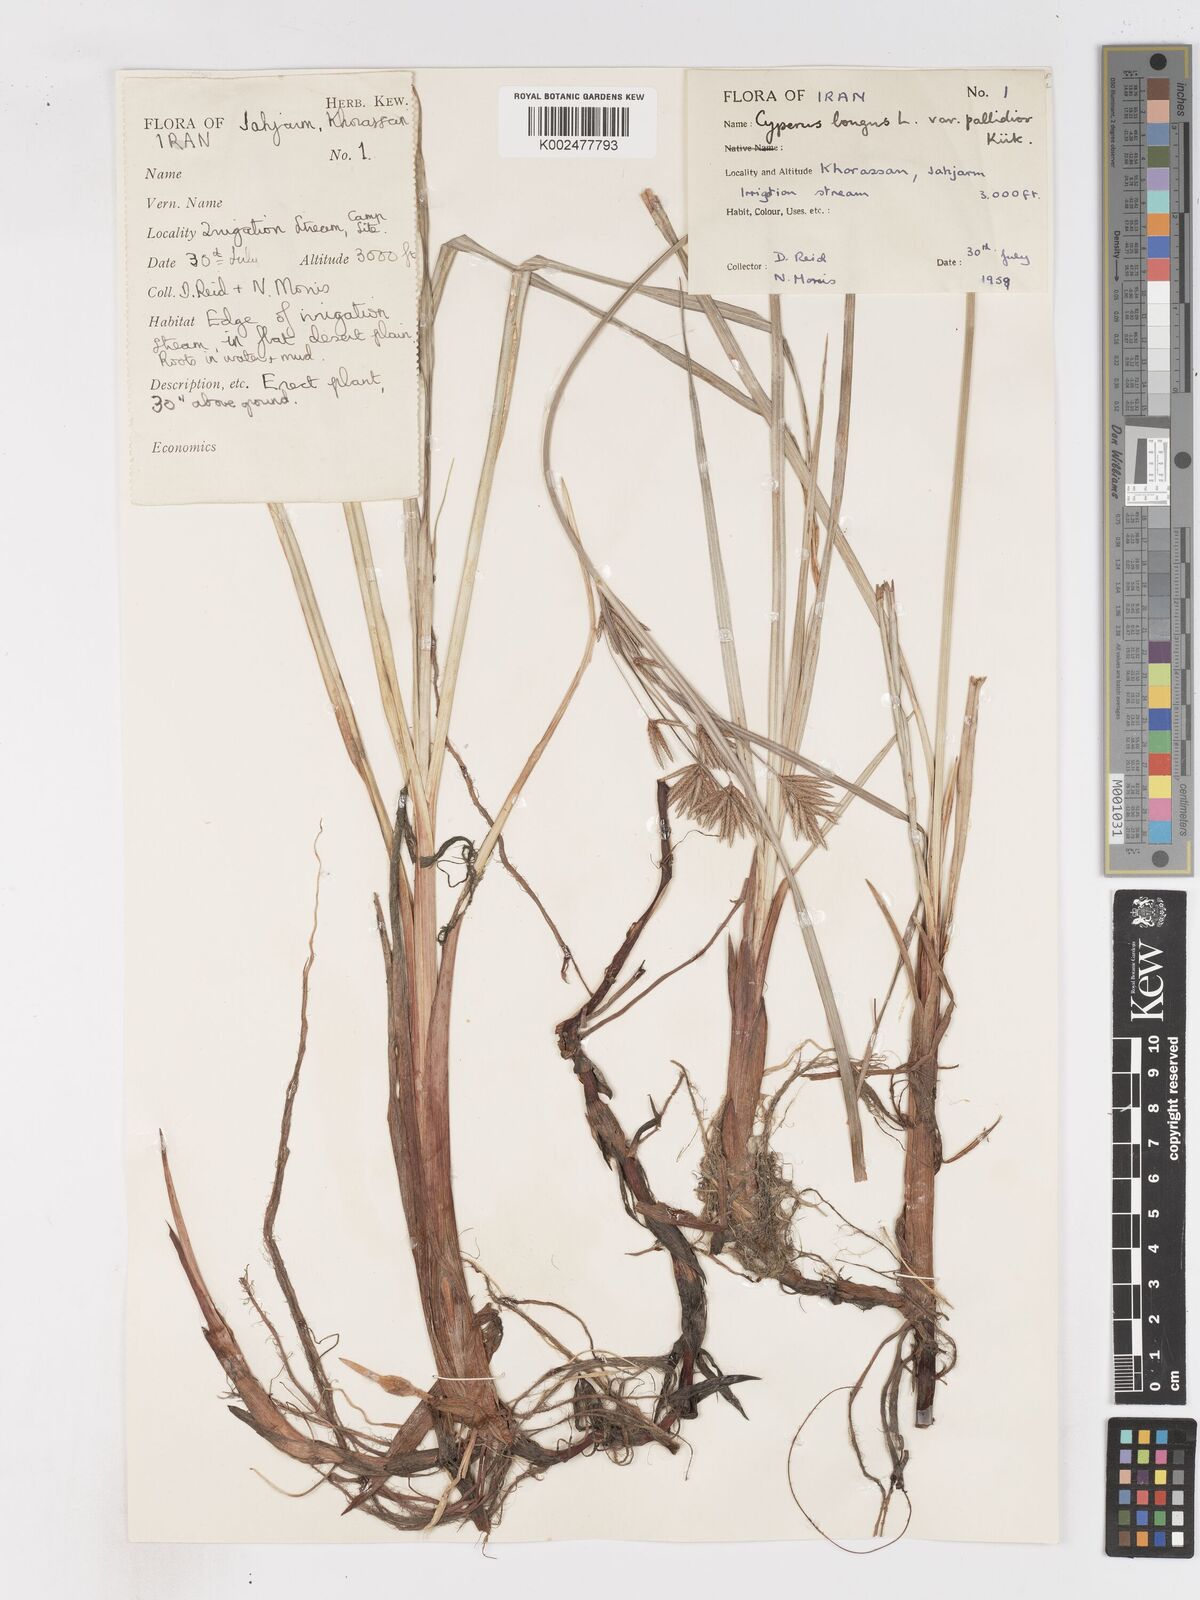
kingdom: Plantae
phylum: Tracheophyta
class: Liliopsida
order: Poales
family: Cyperaceae
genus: Cyperus
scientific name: Cyperus longus
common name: Galingale
